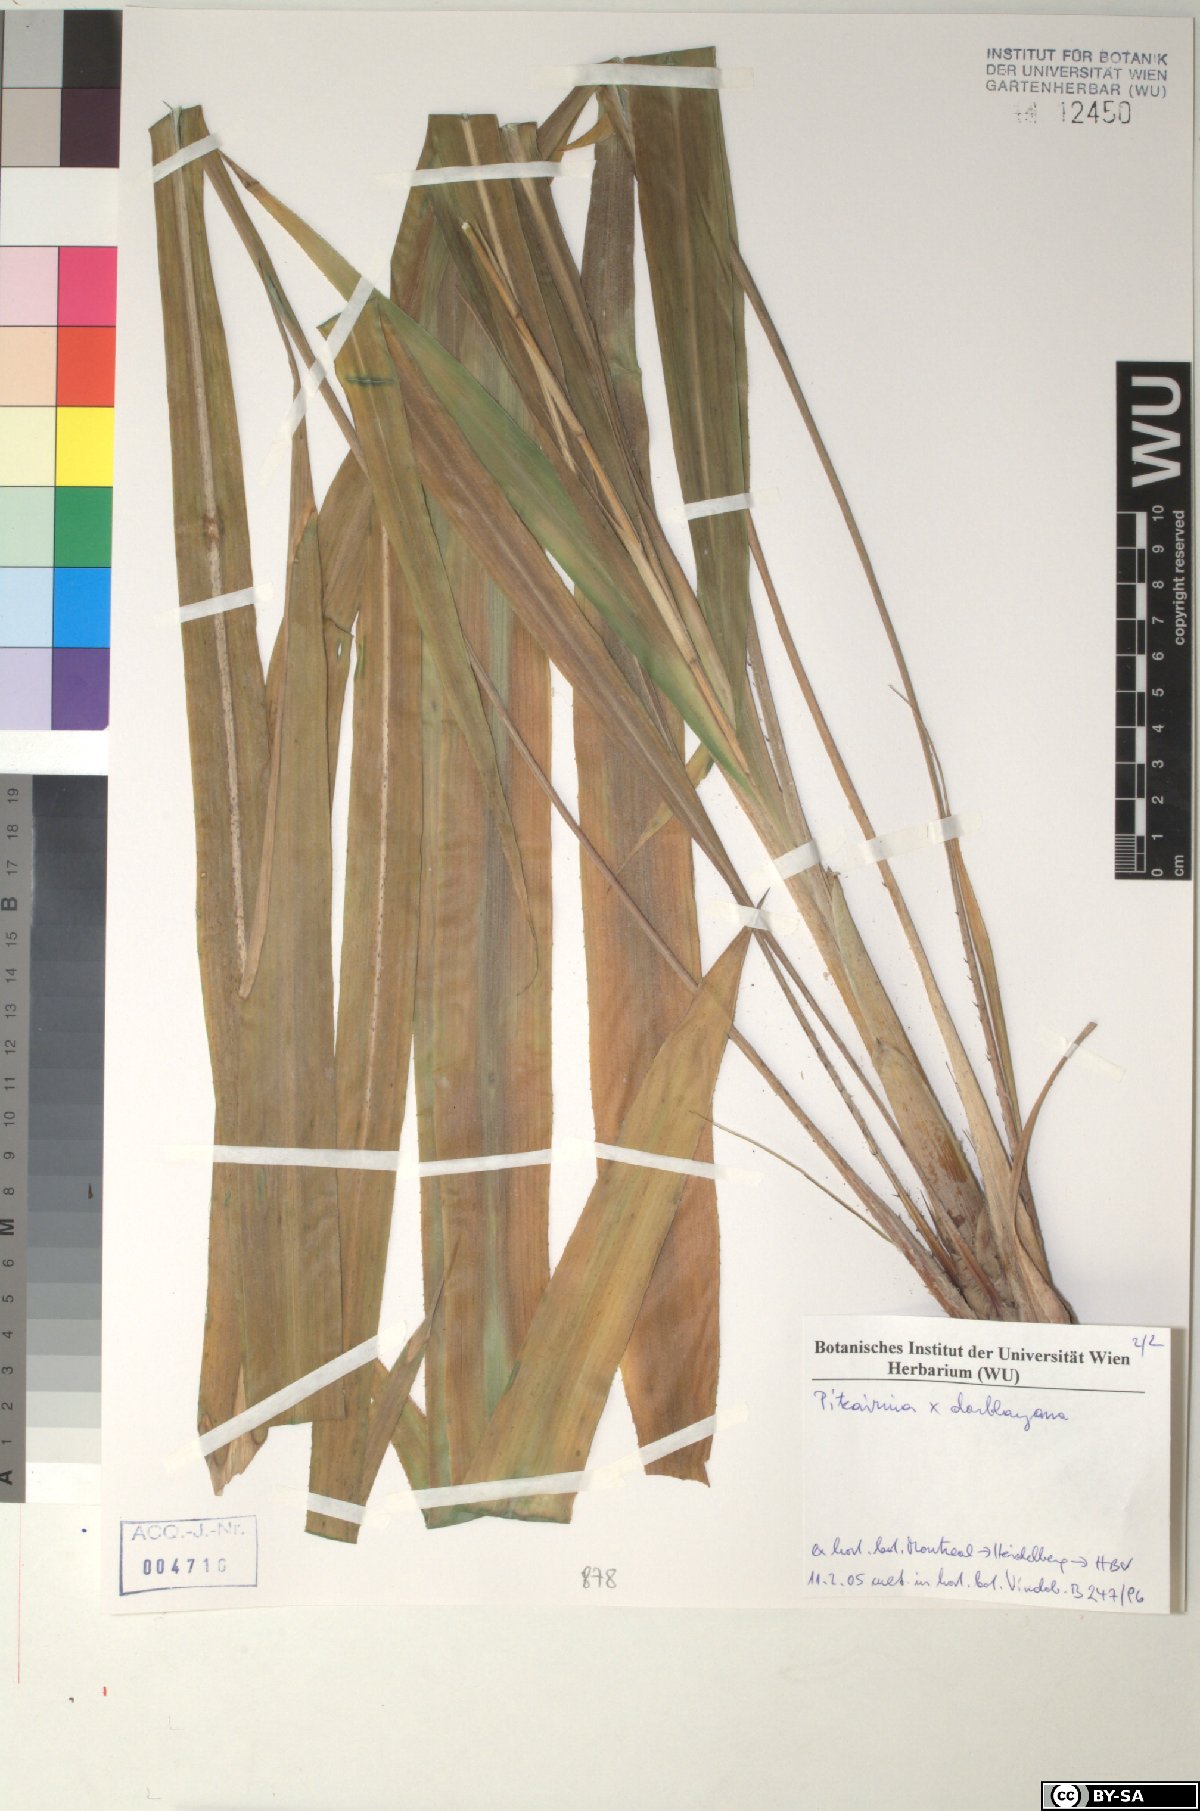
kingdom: Plantae
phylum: Tracheophyta
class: Liliopsida
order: Poales
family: Bromeliaceae
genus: Pitcairnia
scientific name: Pitcairnia tillii
